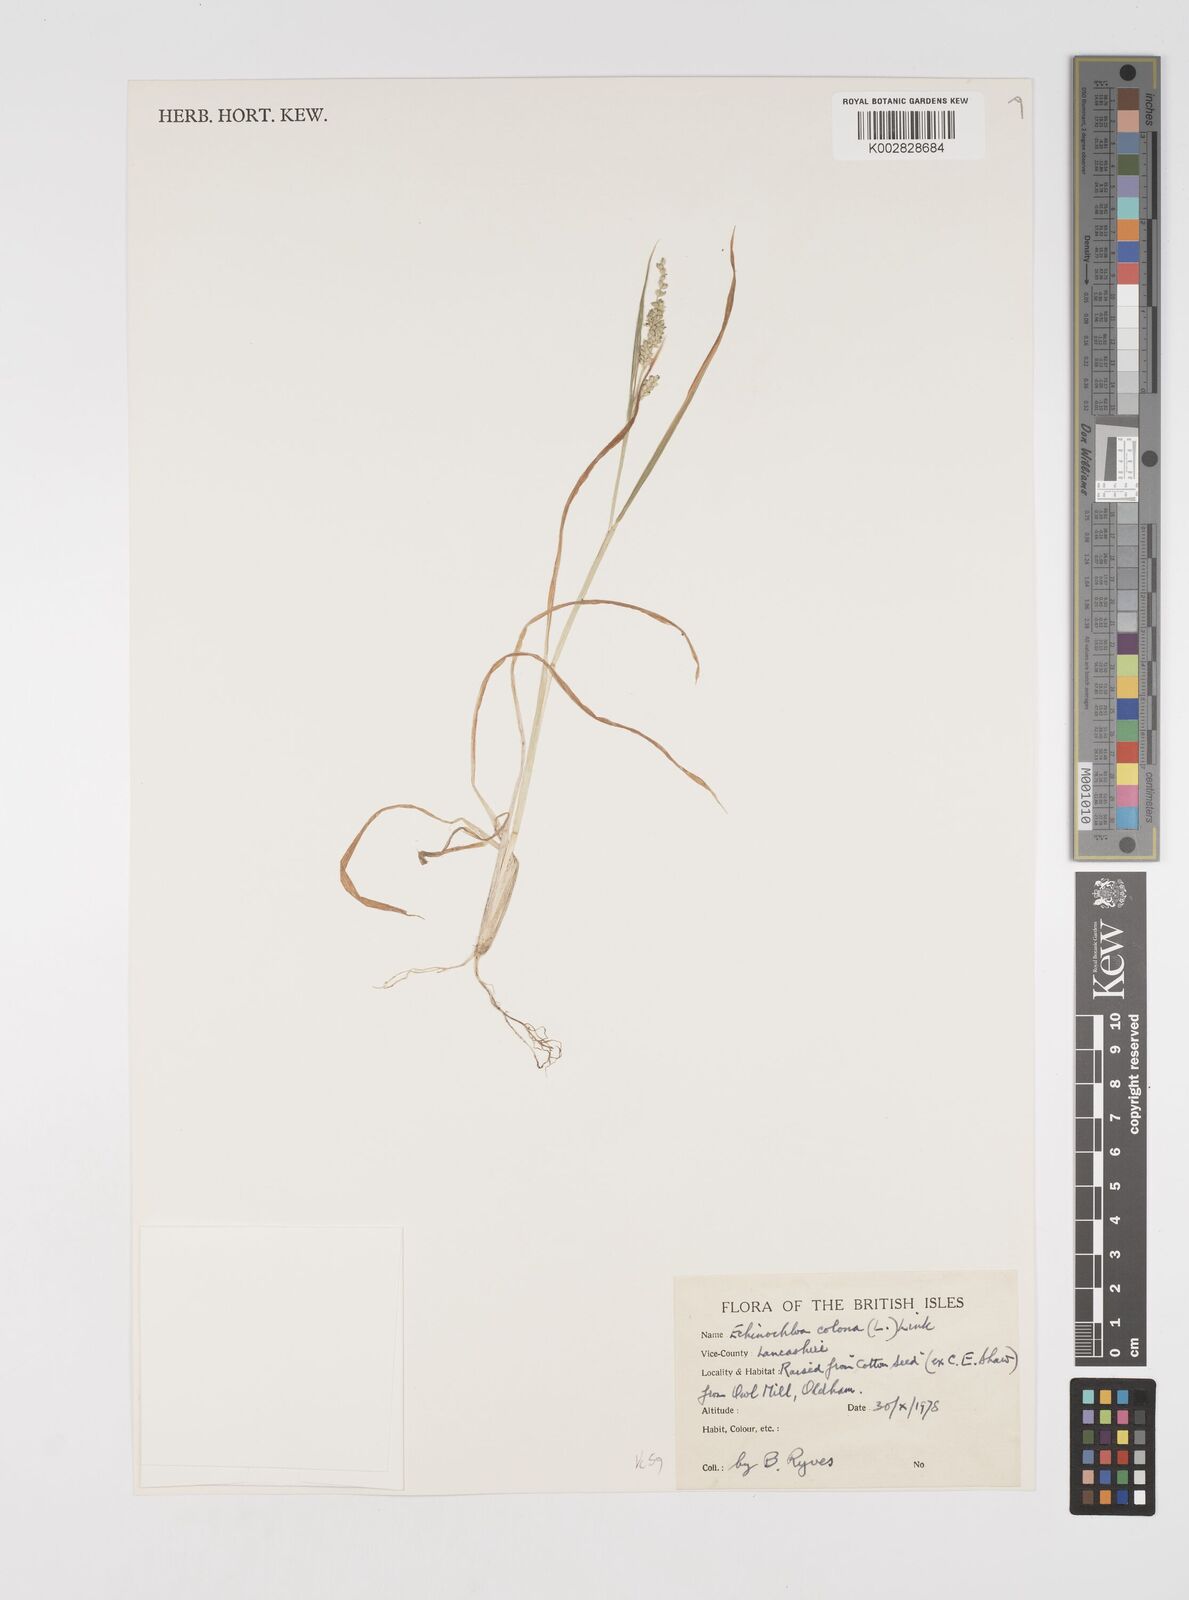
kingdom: Plantae
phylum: Tracheophyta
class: Liliopsida
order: Poales
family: Poaceae
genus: Echinochloa
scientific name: Echinochloa colonum
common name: Jungle rice
